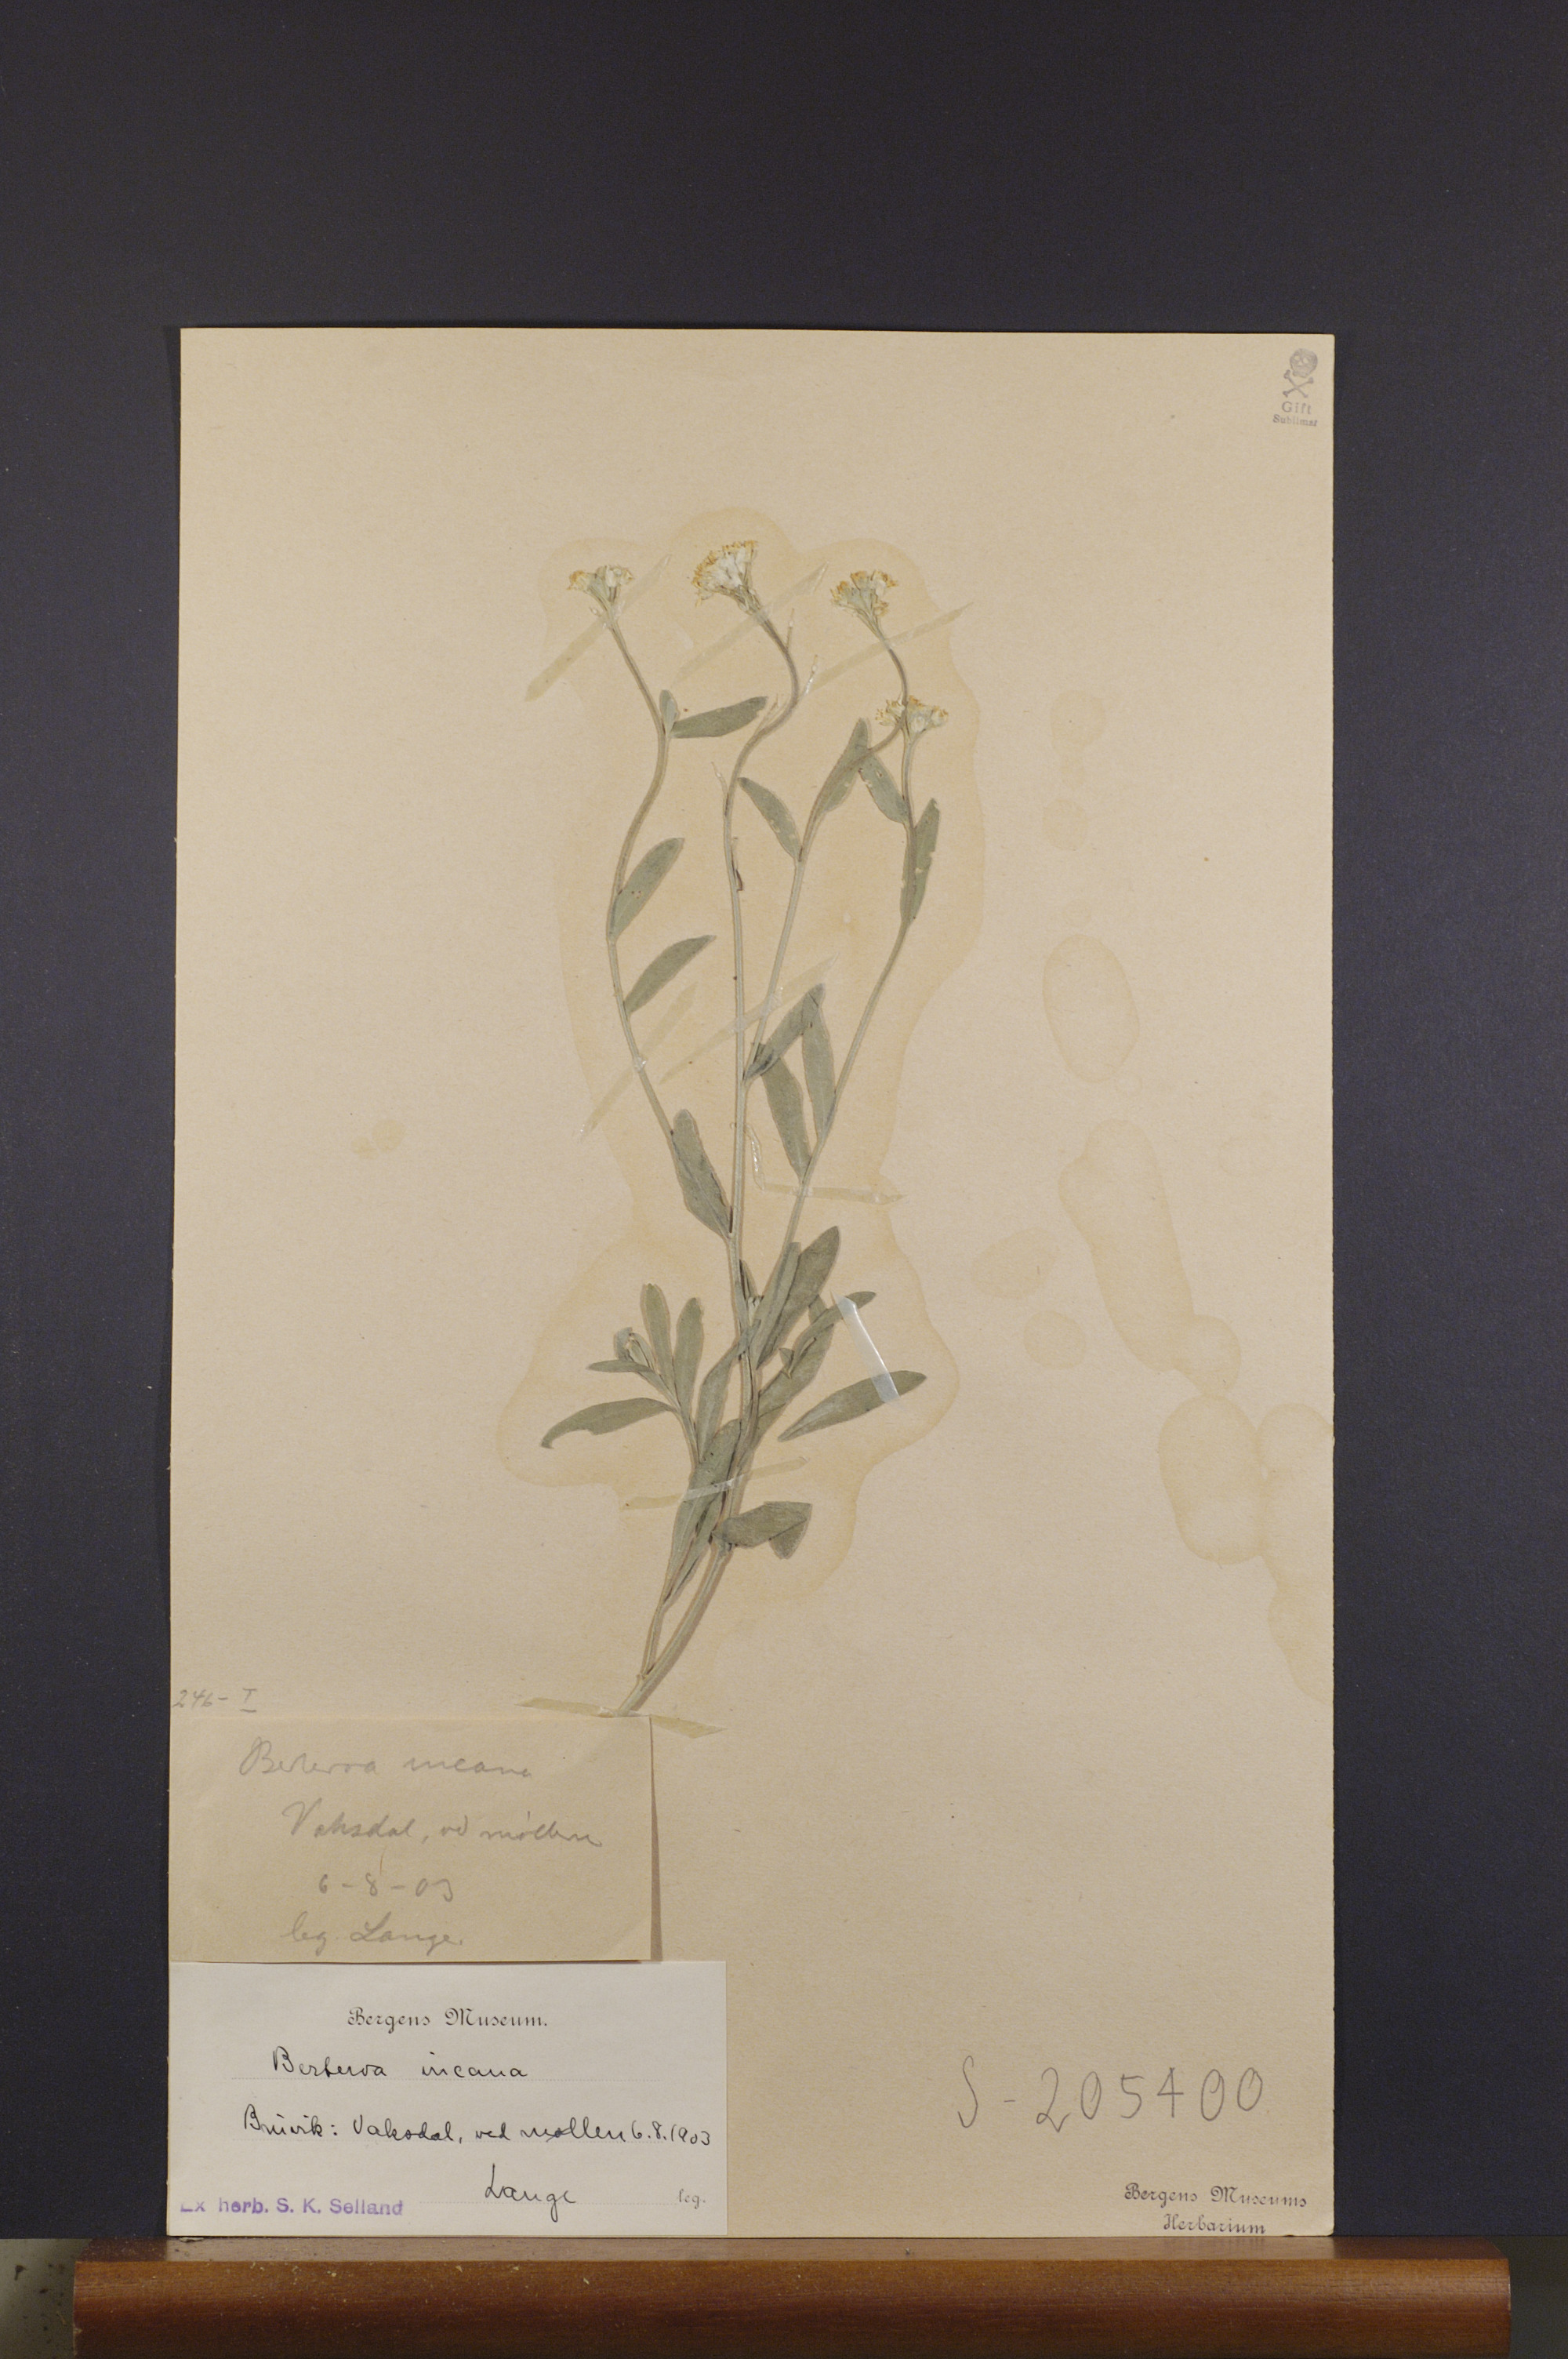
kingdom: Plantae
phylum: Tracheophyta
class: Magnoliopsida
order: Brassicales
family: Brassicaceae
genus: Berteroa
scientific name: Berteroa incana
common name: Hoary alison
